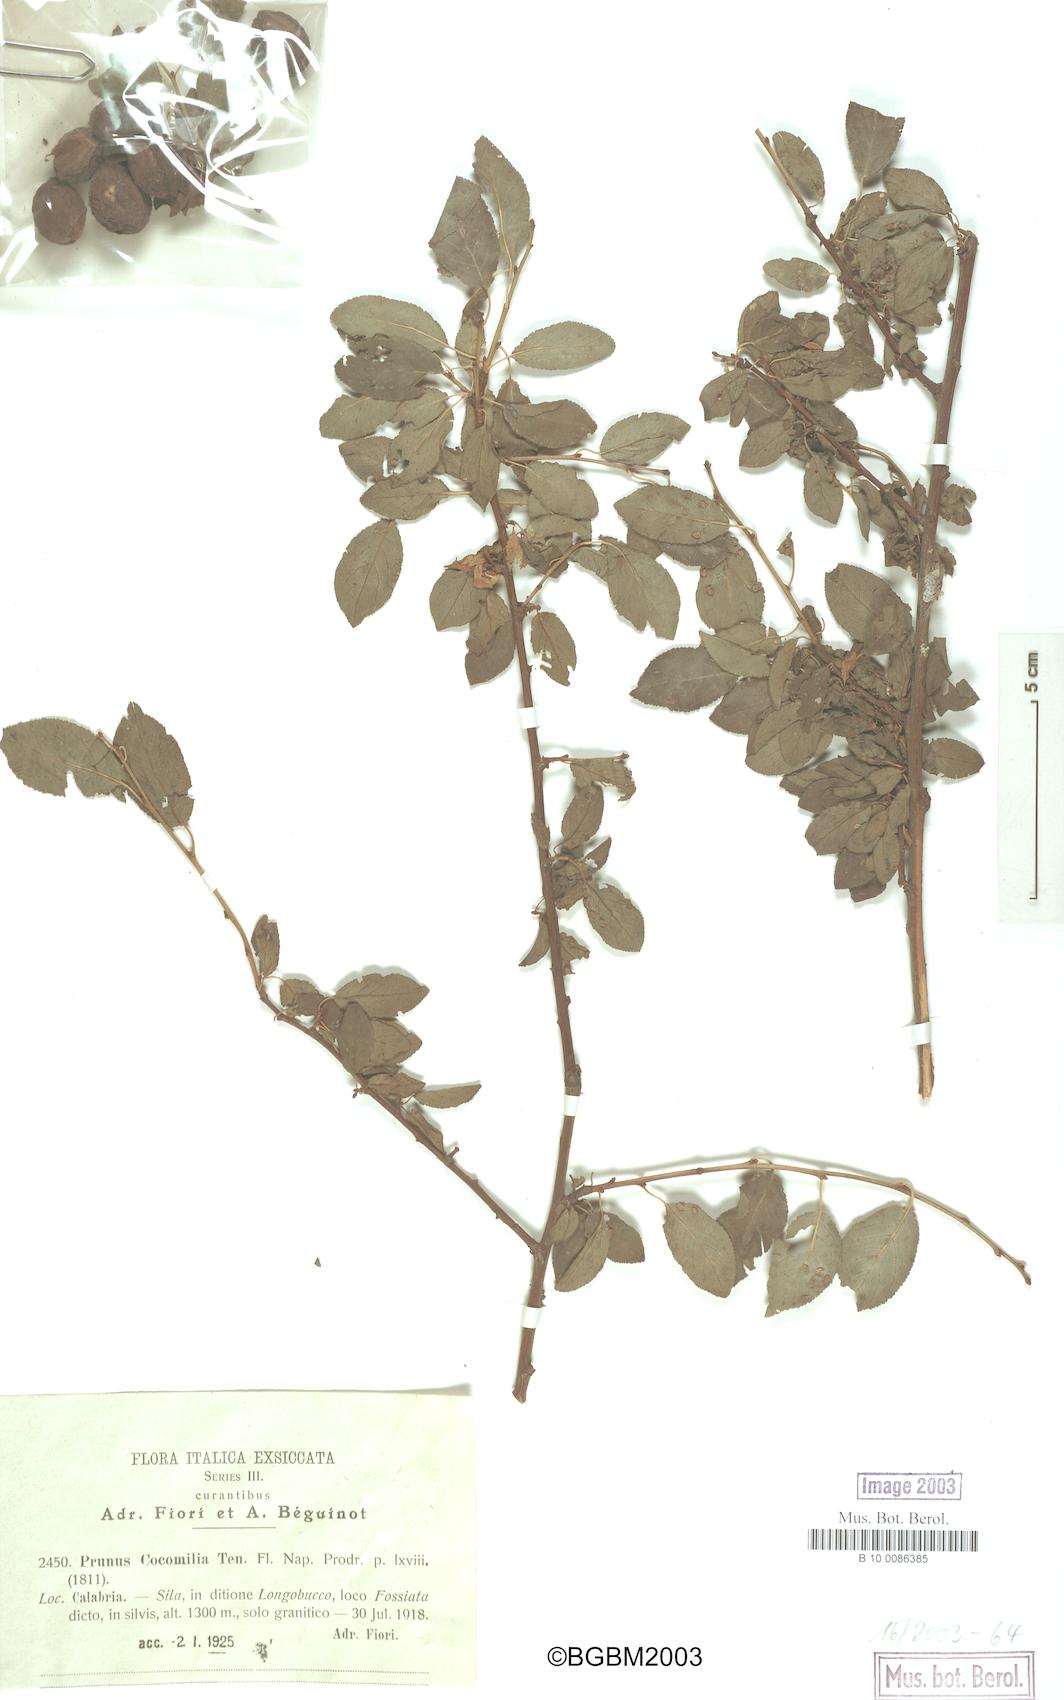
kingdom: Plantae
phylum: Tracheophyta
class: Magnoliopsida
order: Rosales
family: Rosaceae
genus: Prunus
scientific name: Prunus cocomilia
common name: Italian plum
